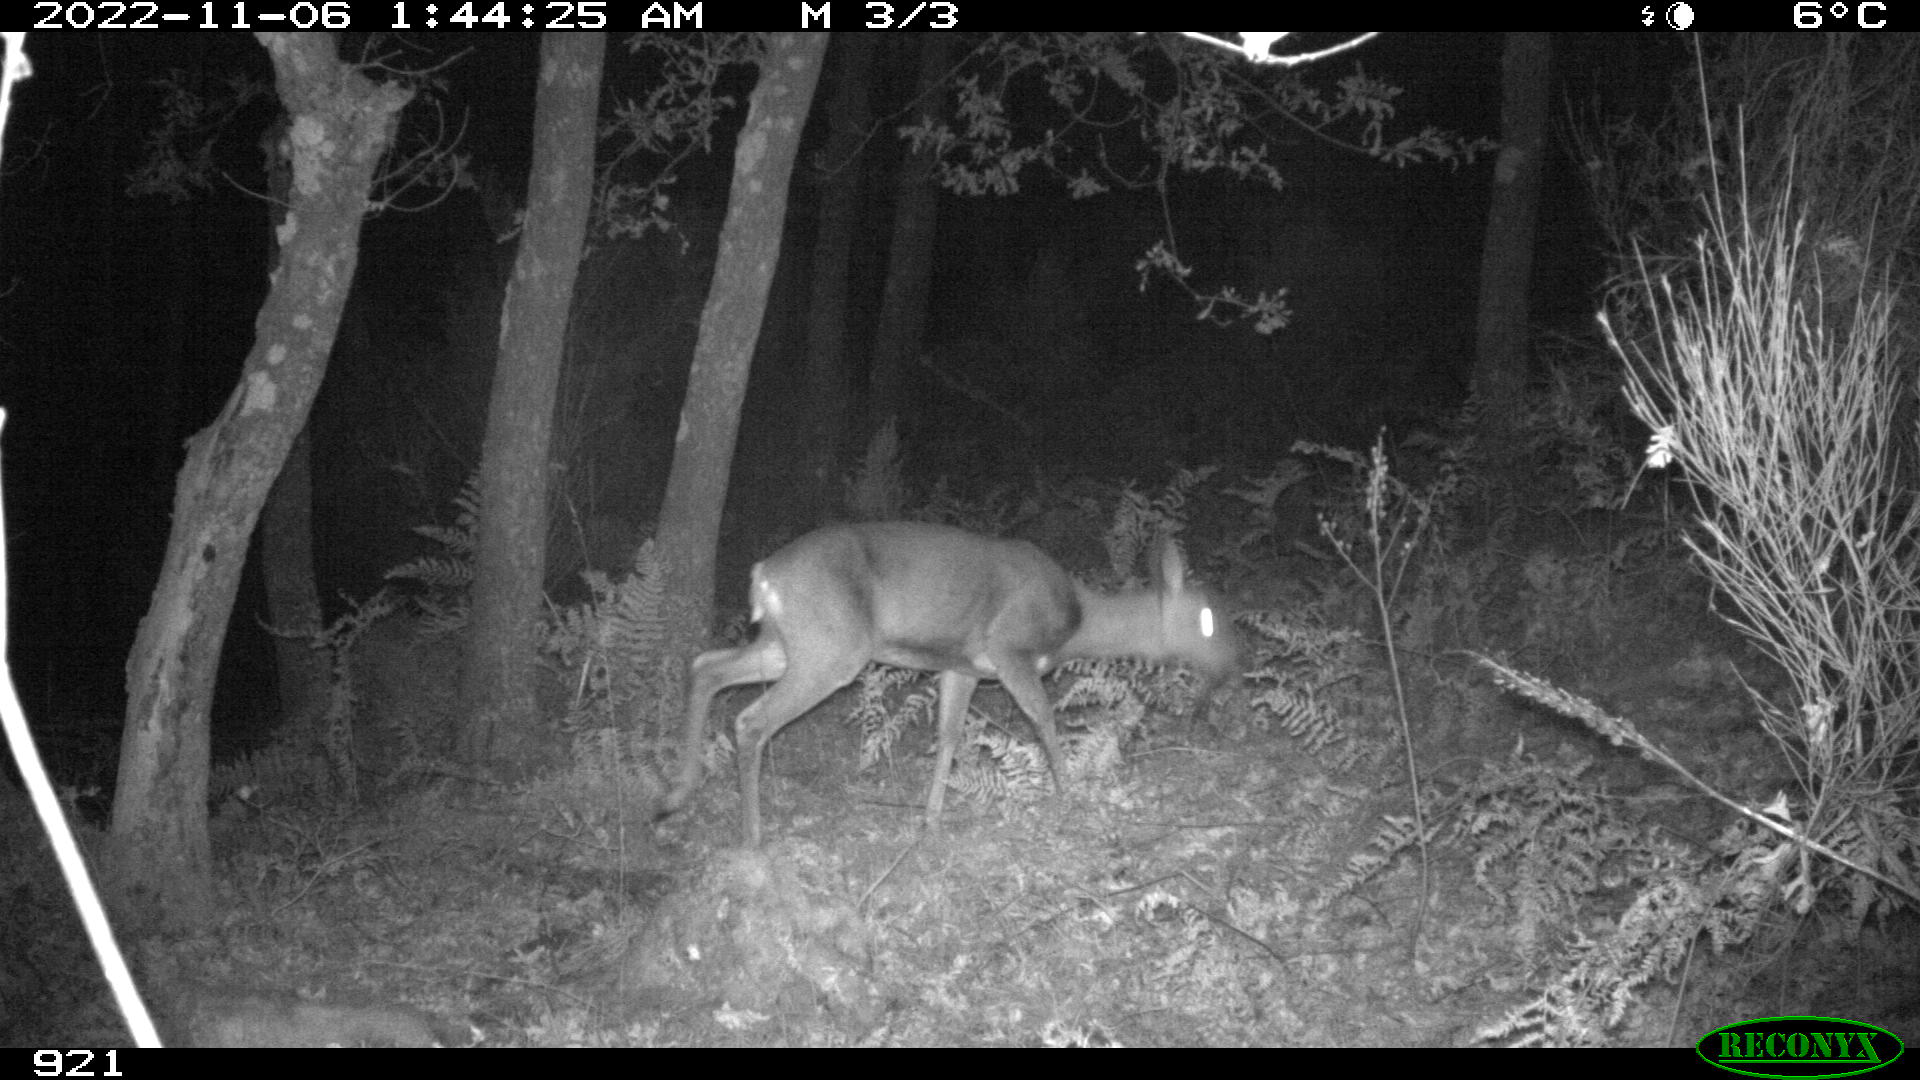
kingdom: Animalia
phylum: Chordata
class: Mammalia
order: Artiodactyla
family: Cervidae
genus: Capreolus
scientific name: Capreolus capreolus
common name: Western roe deer
